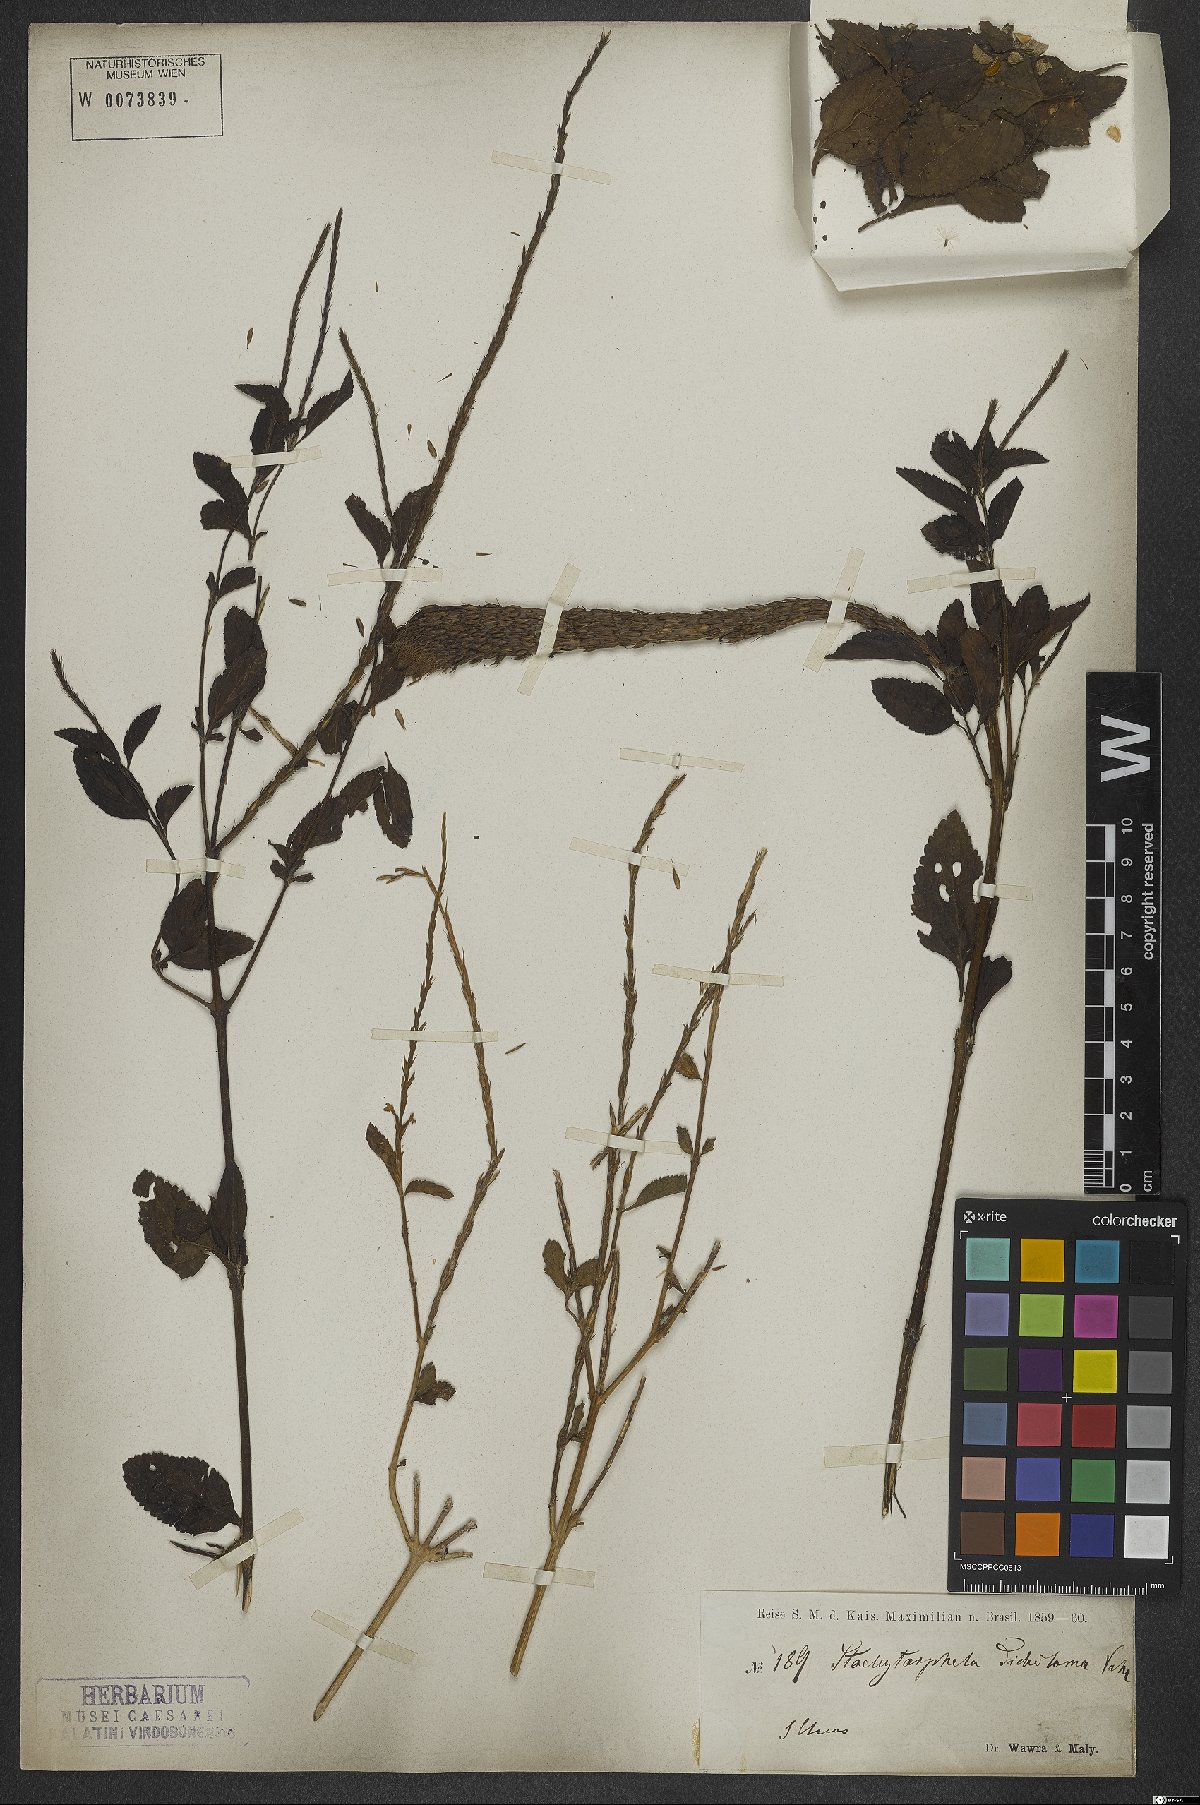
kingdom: Plantae
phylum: Tracheophyta
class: Magnoliopsida
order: Lamiales
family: Verbenaceae
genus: Stachytarpheta
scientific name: Stachytarpheta cayennensis
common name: Cayenne porterweed
